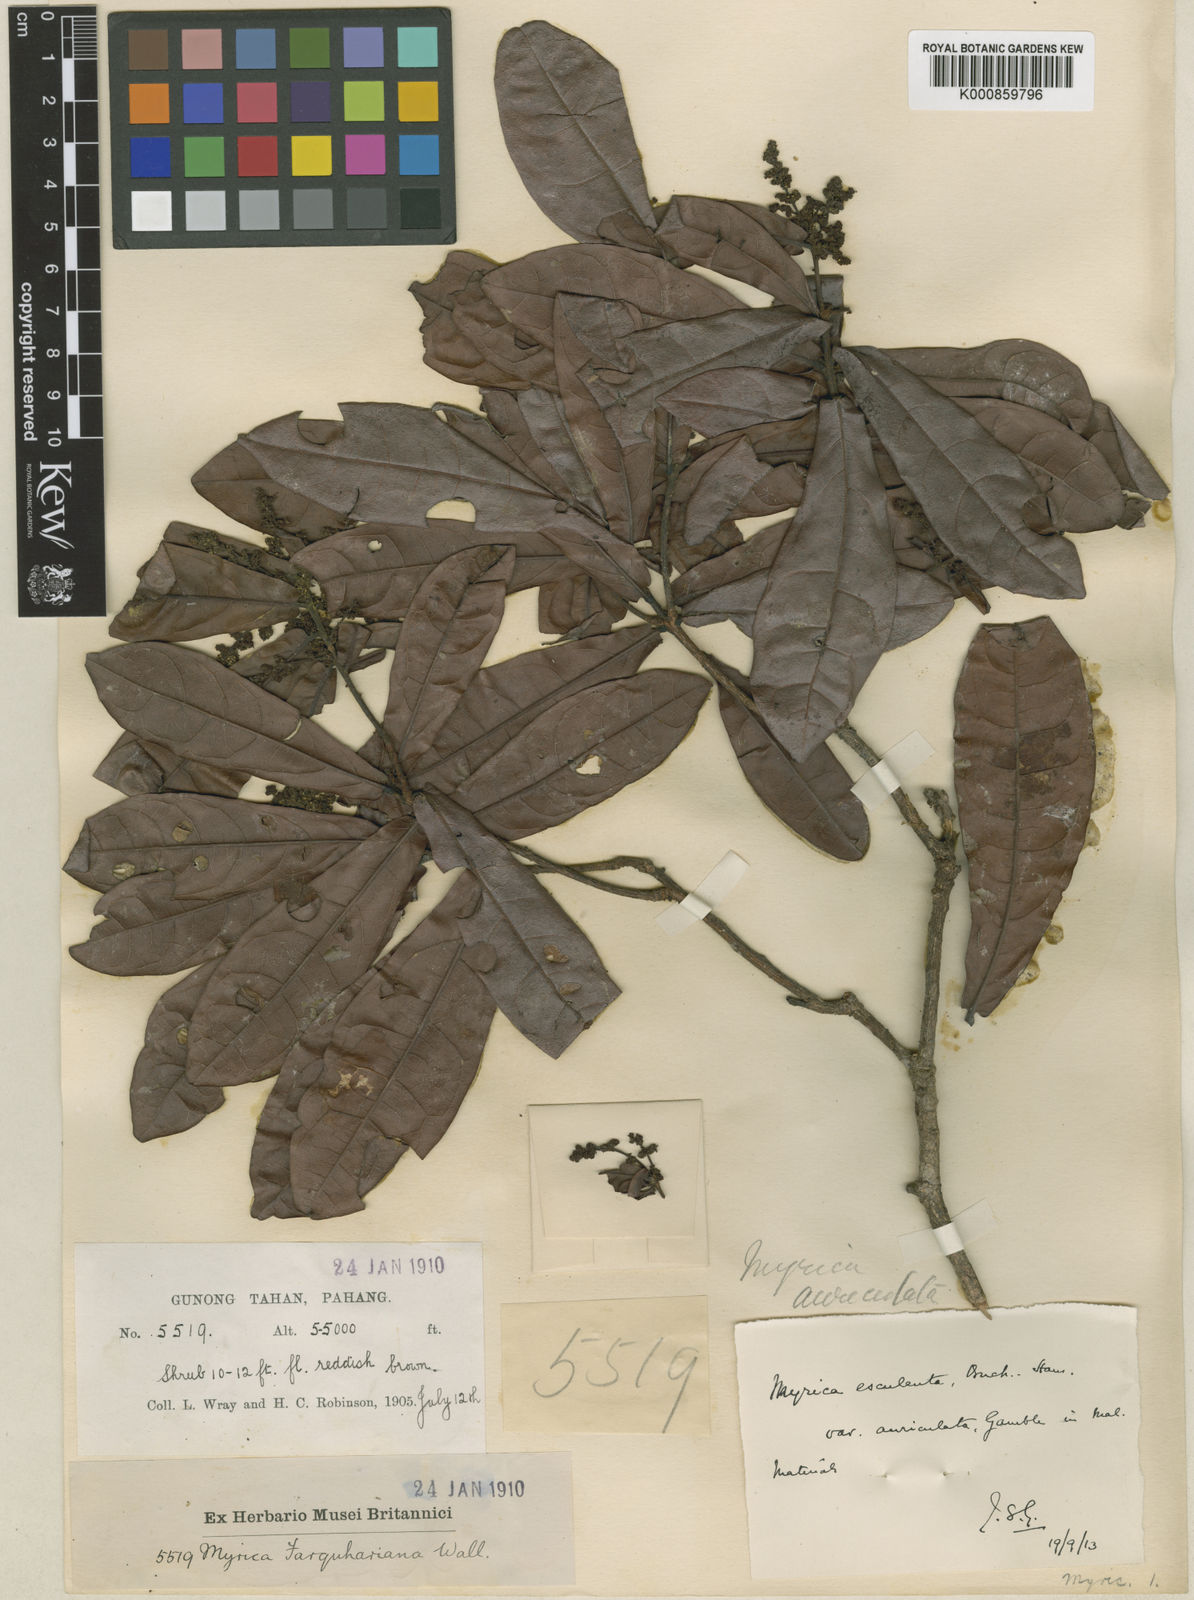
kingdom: Plantae
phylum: Tracheophyta
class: Magnoliopsida
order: Fagales
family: Myricaceae
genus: Morella
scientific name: Morella esculenta
